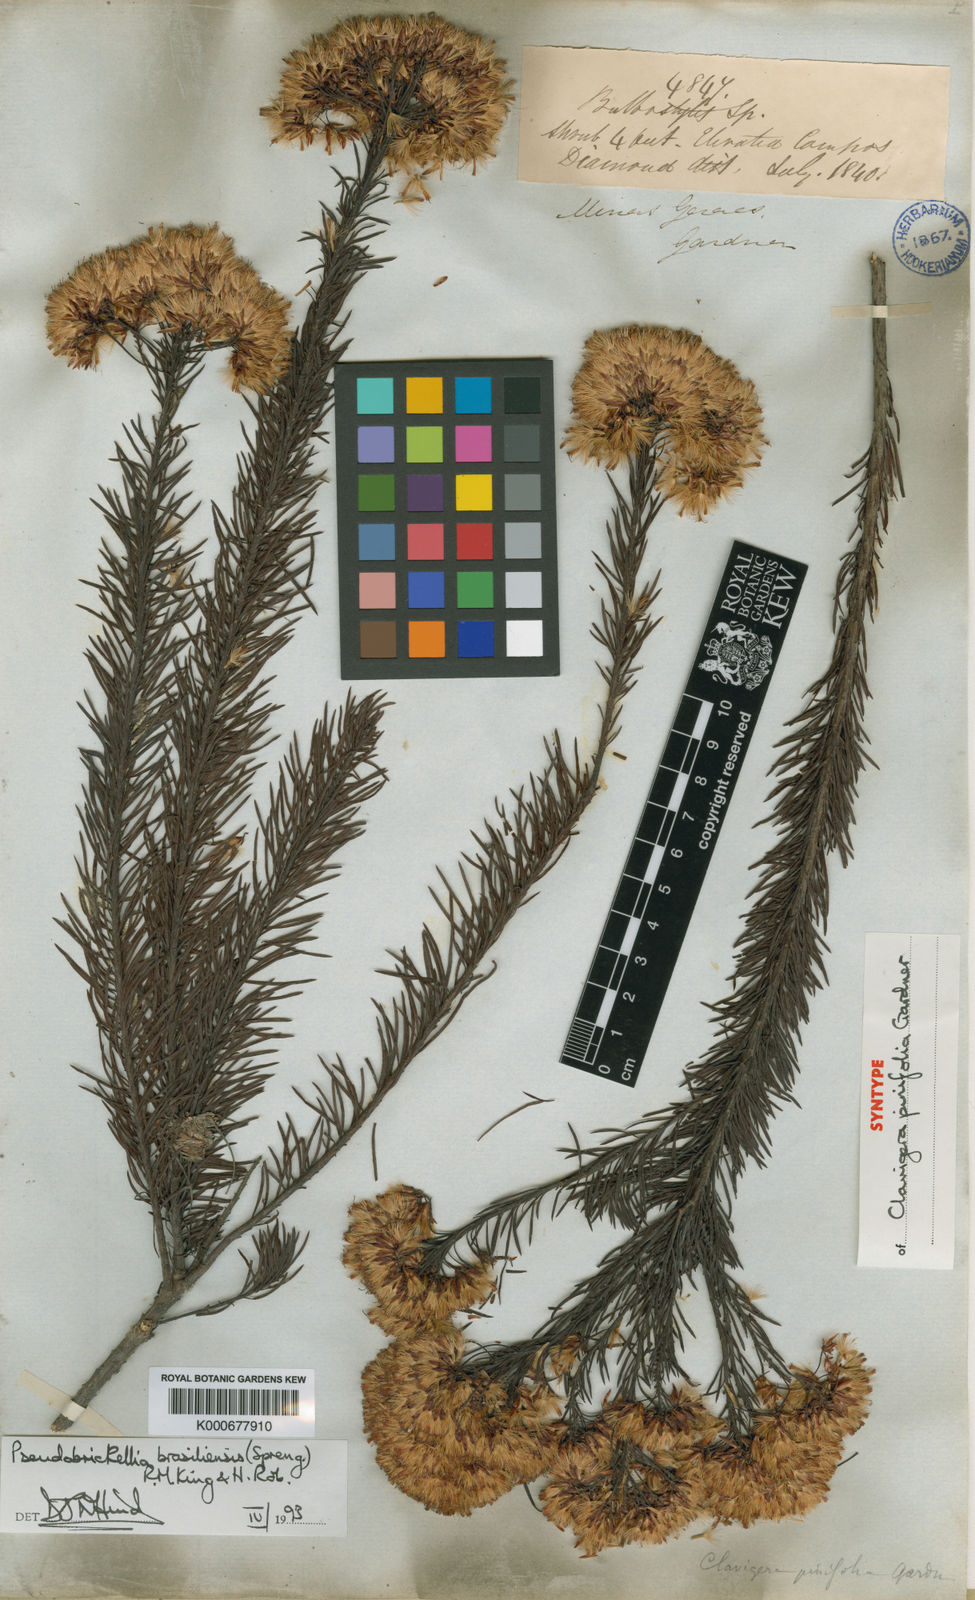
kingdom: Plantae
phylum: Tracheophyta
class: Magnoliopsida
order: Asterales
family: Asteraceae
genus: Pseudobrickellia
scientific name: Pseudobrickellia brasiliensis
